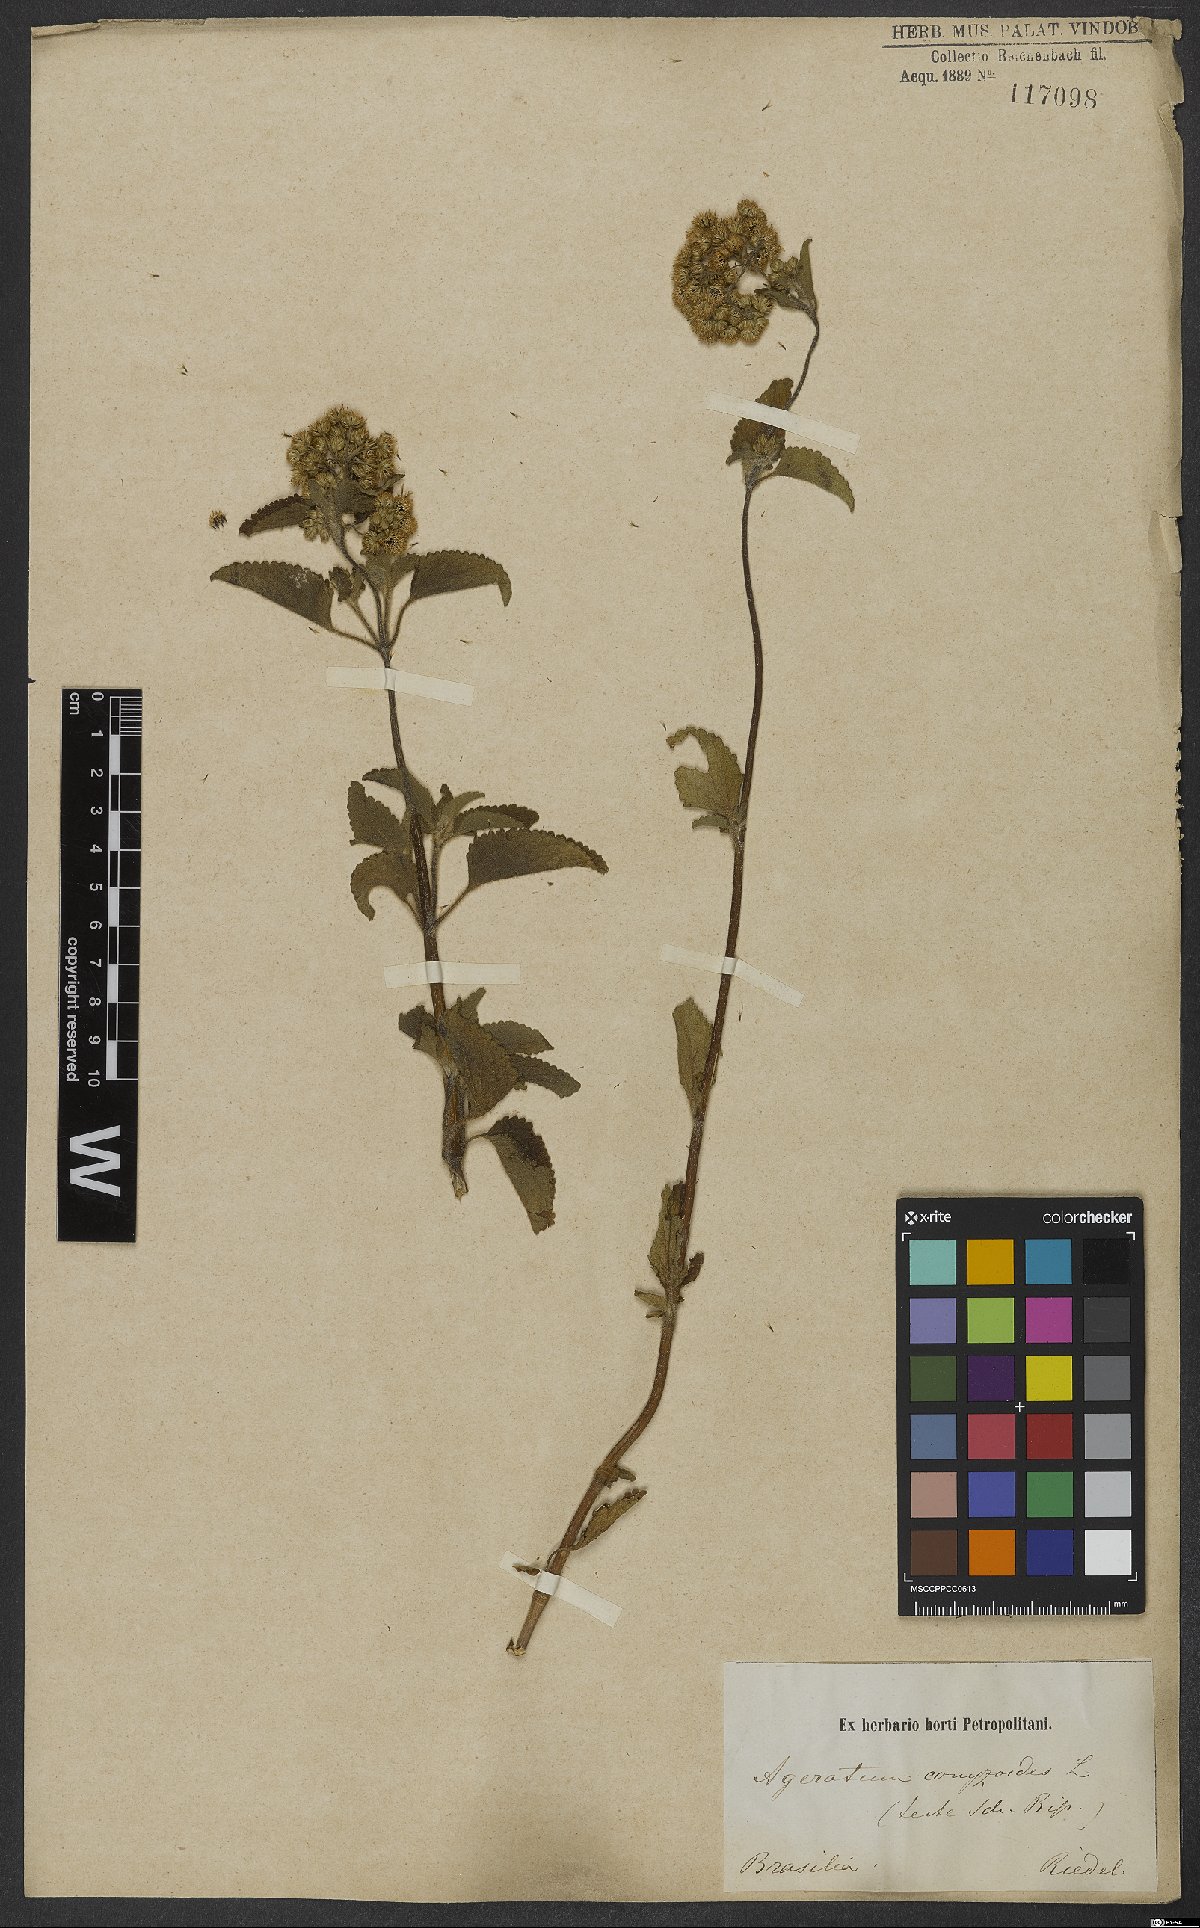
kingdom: Plantae
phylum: Tracheophyta
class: Magnoliopsida
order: Asterales
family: Asteraceae
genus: Ageratum
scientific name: Ageratum conyzoides
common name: Tropical whiteweed
